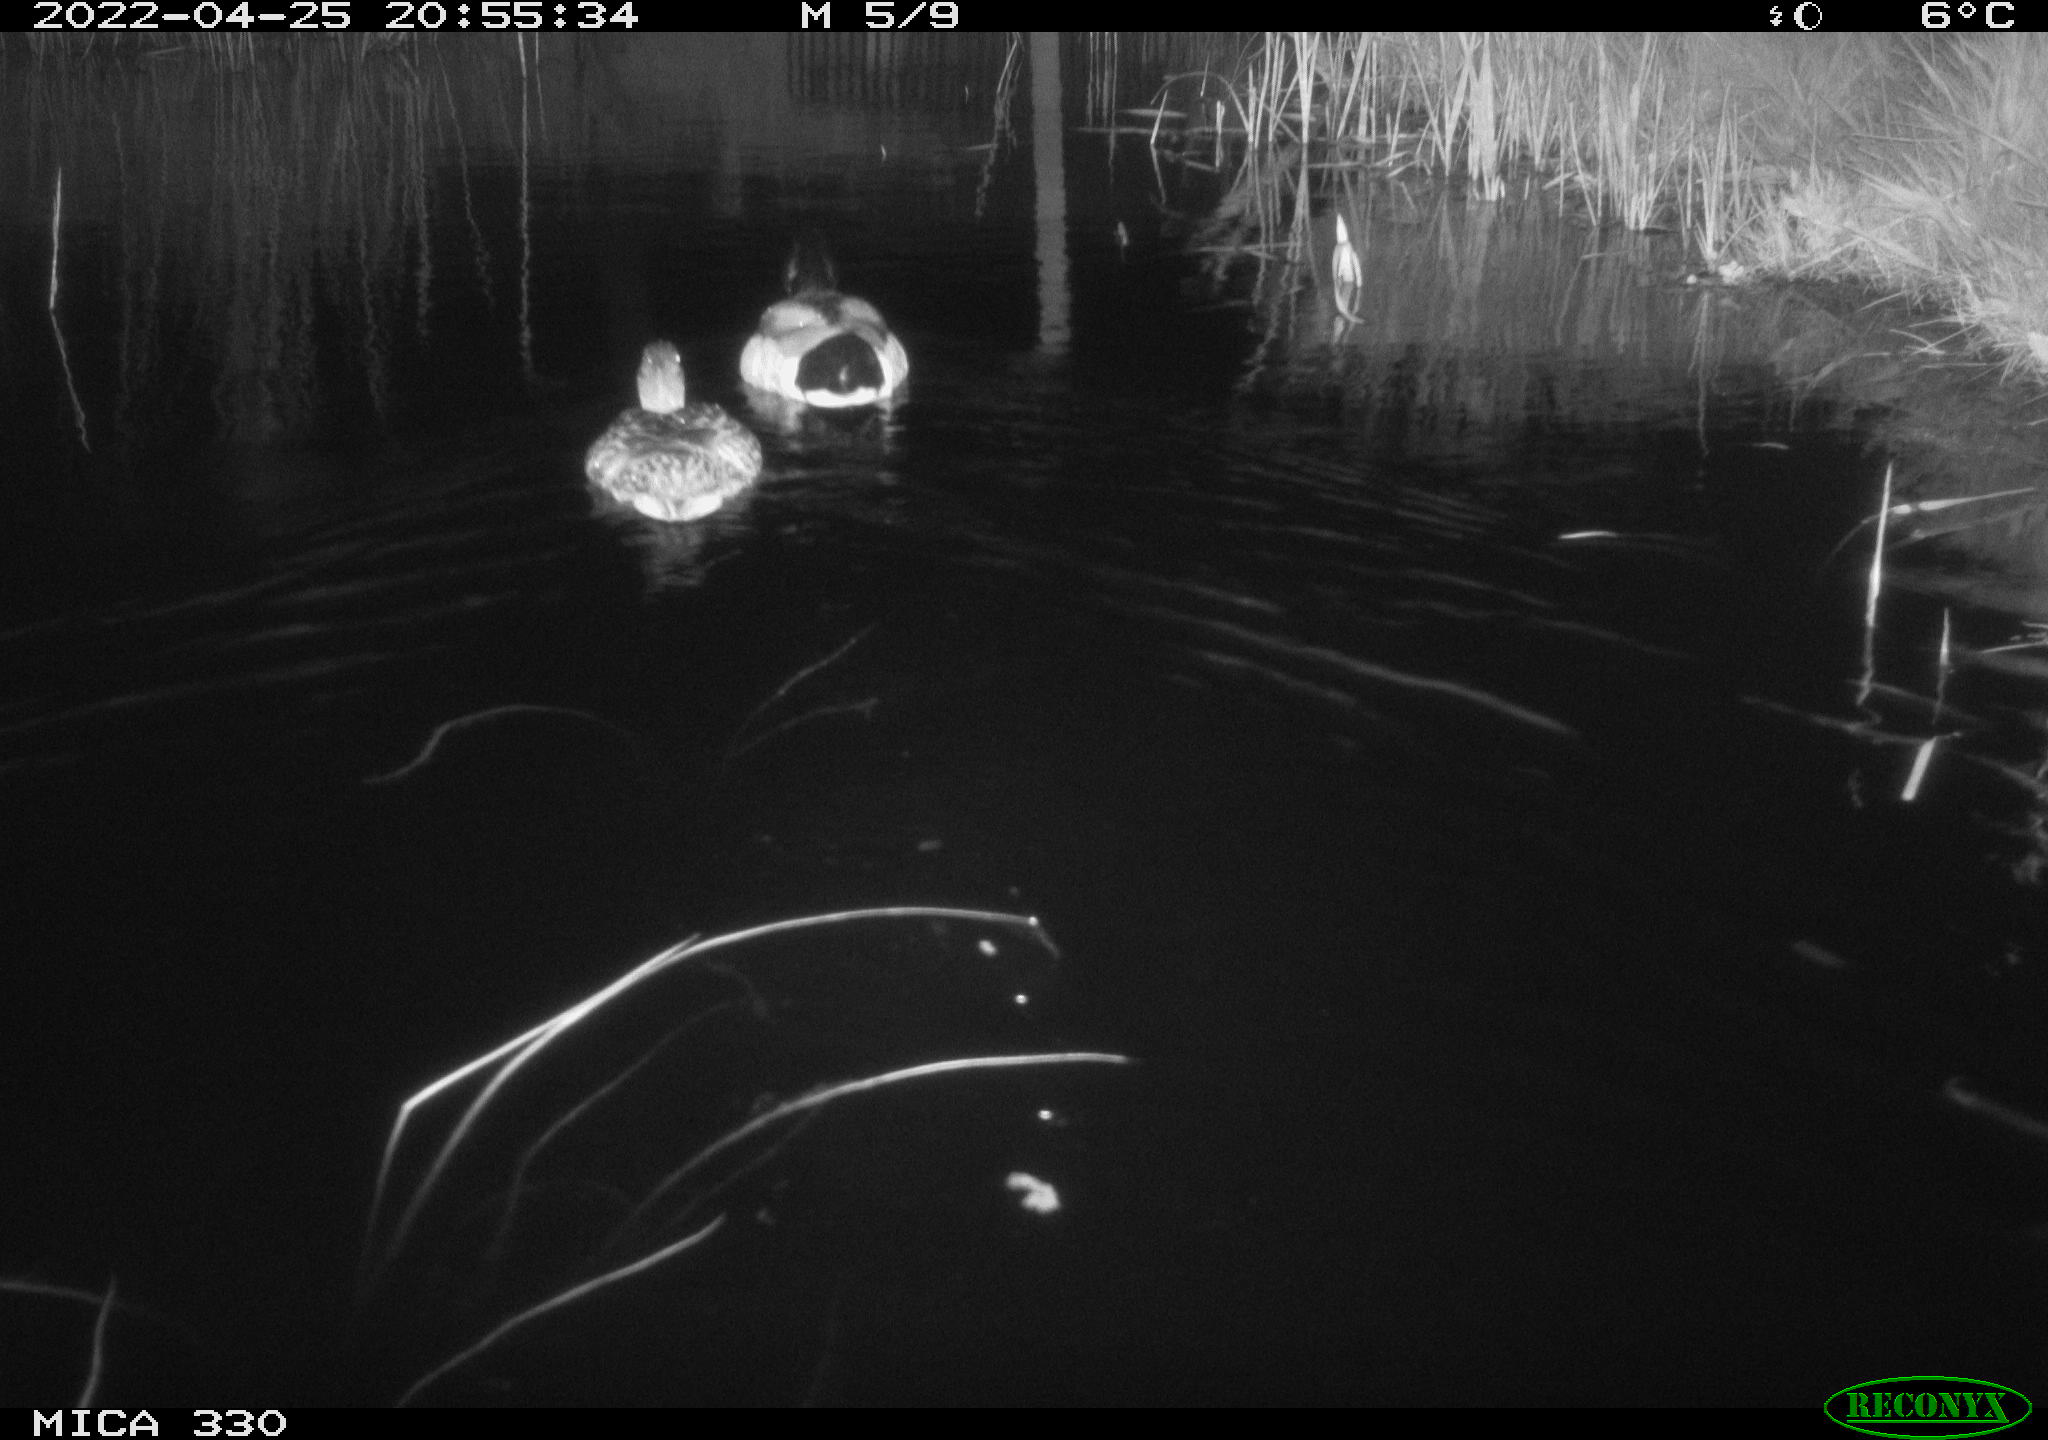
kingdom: Animalia
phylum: Chordata
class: Aves
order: Anseriformes
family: Anatidae
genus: Anas
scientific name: Anas platyrhynchos
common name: Mallard
